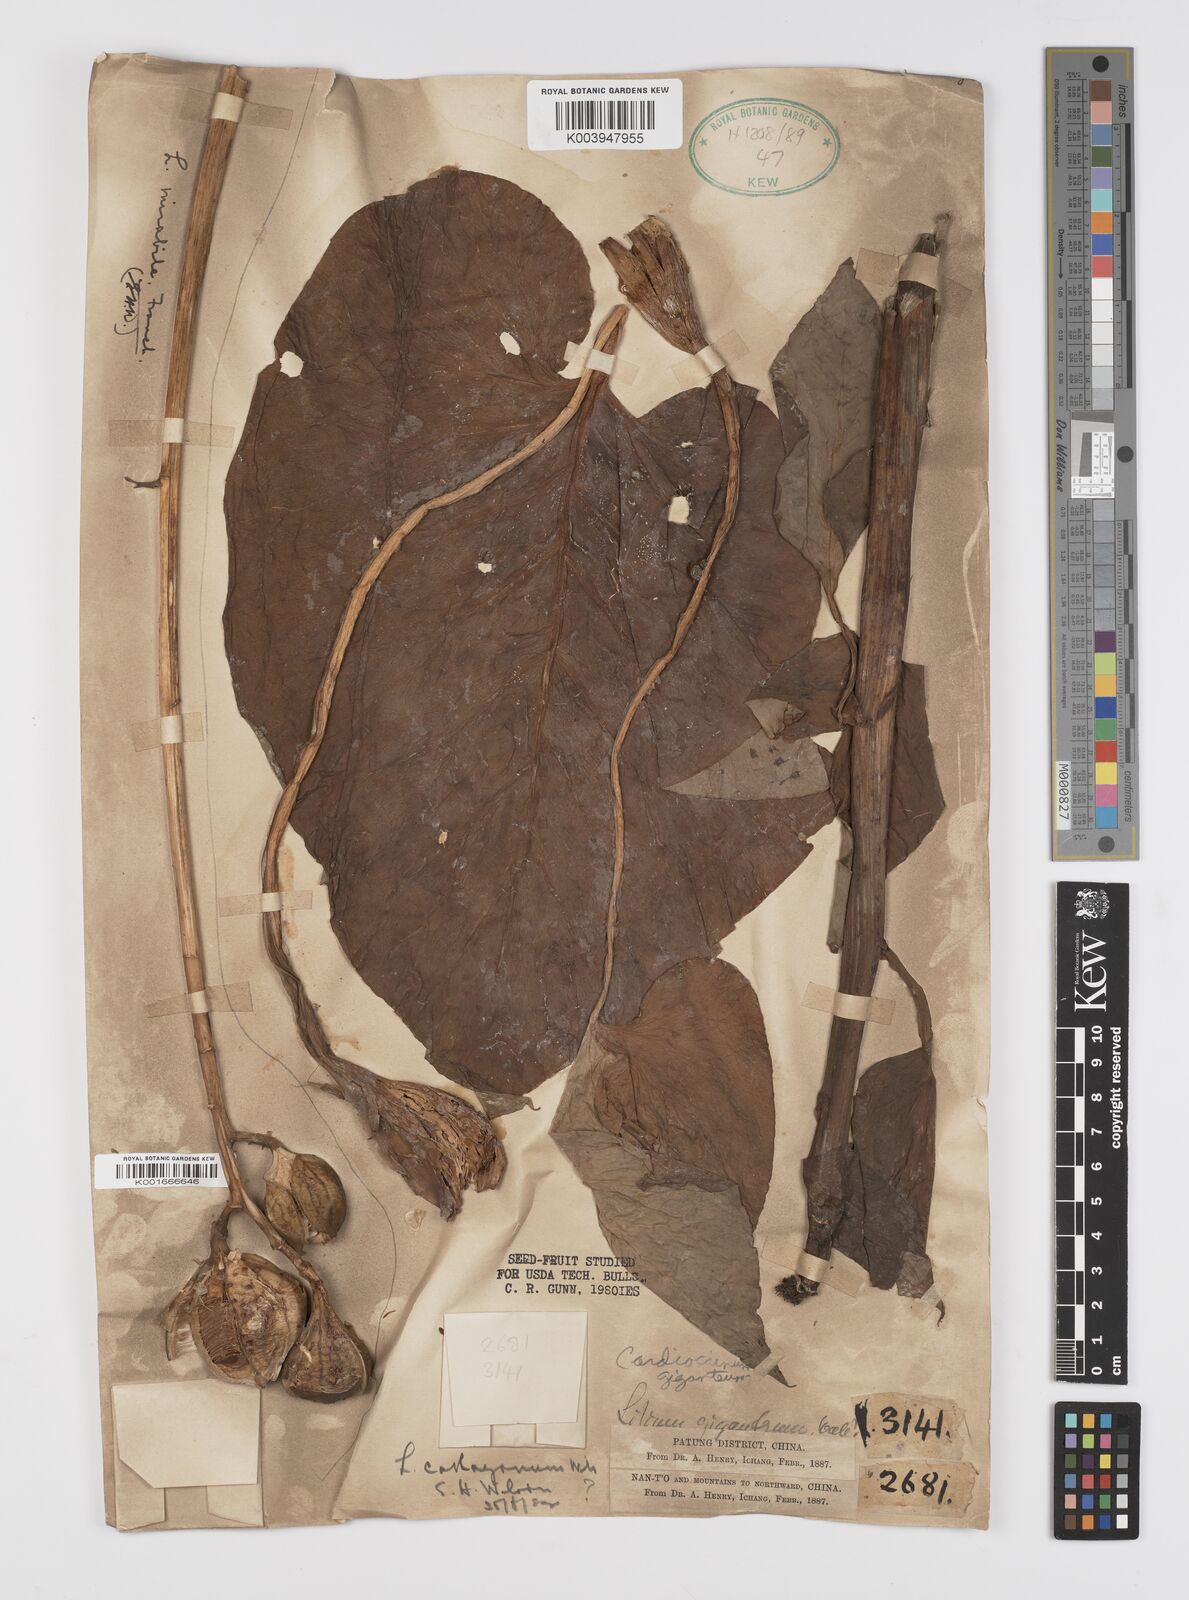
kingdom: Plantae
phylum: Tracheophyta
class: Liliopsida
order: Liliales
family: Liliaceae
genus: Cardiocrinum
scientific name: Cardiocrinum giganteum
